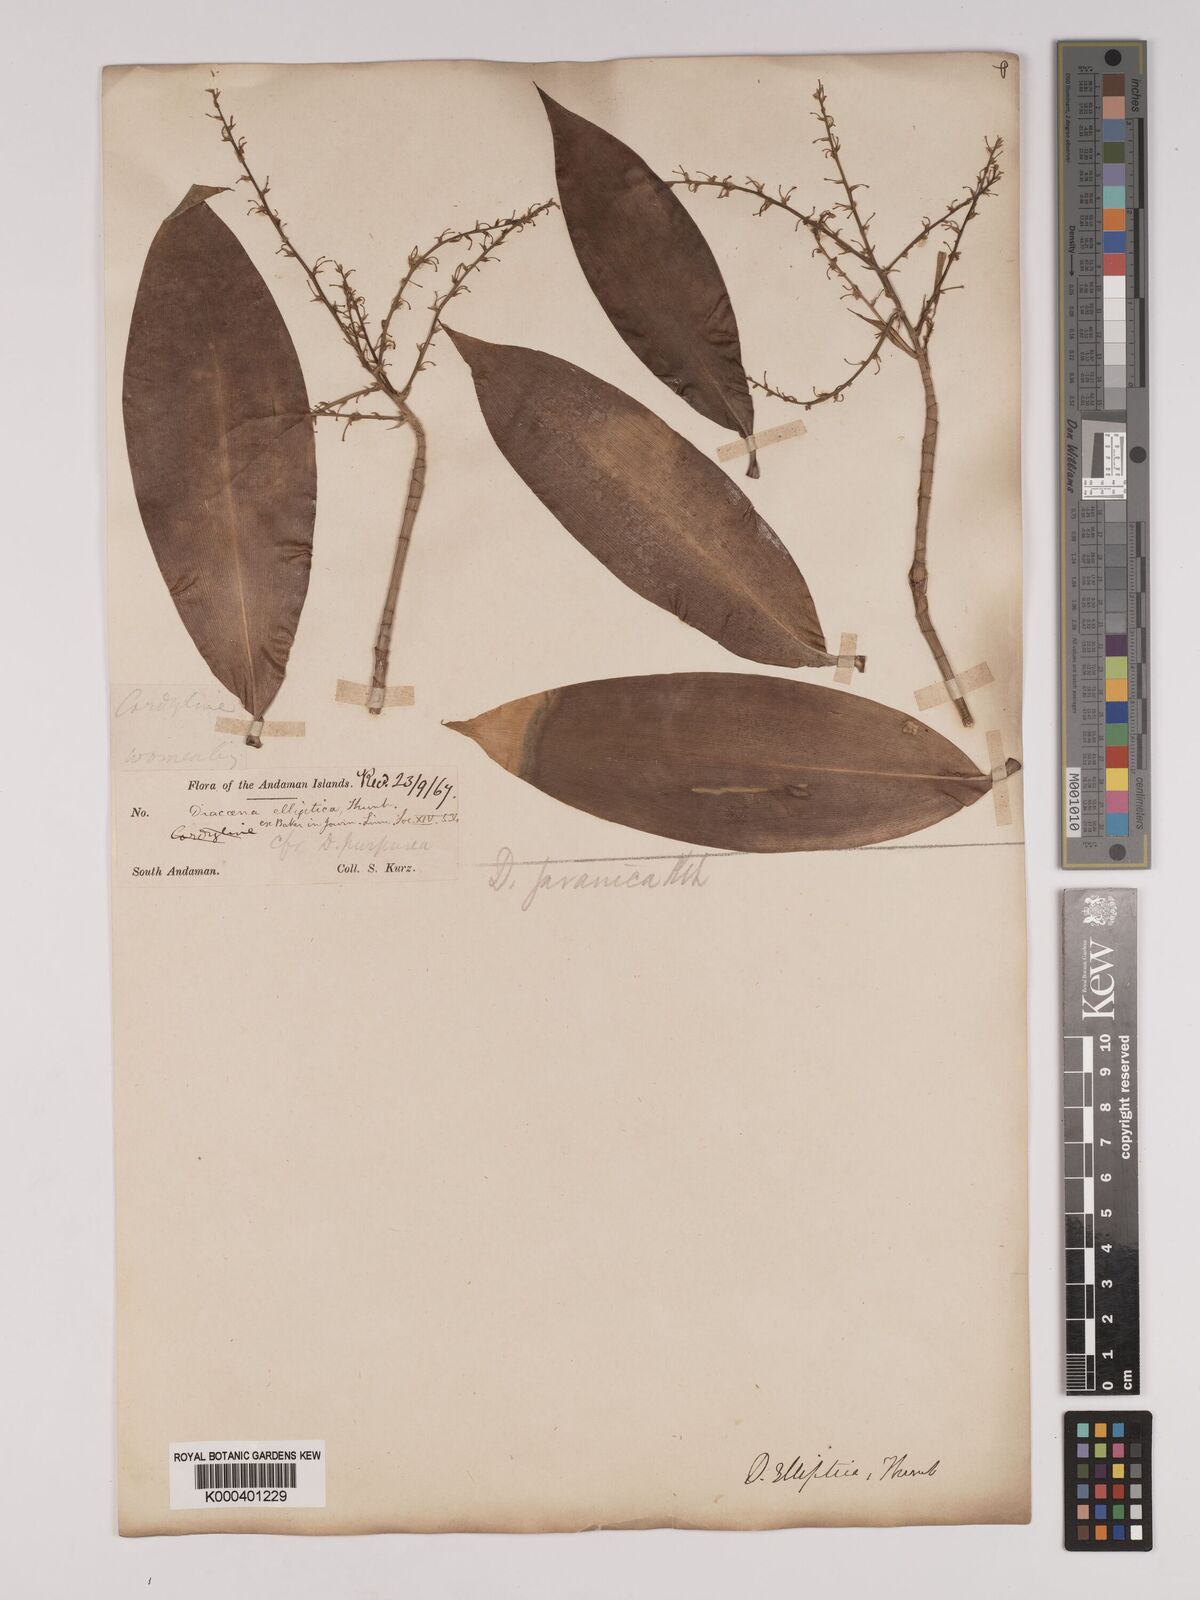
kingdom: Plantae
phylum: Tracheophyta
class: Liliopsida
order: Asparagales
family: Asparagaceae
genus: Dracaena
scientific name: Dracaena elliptica
